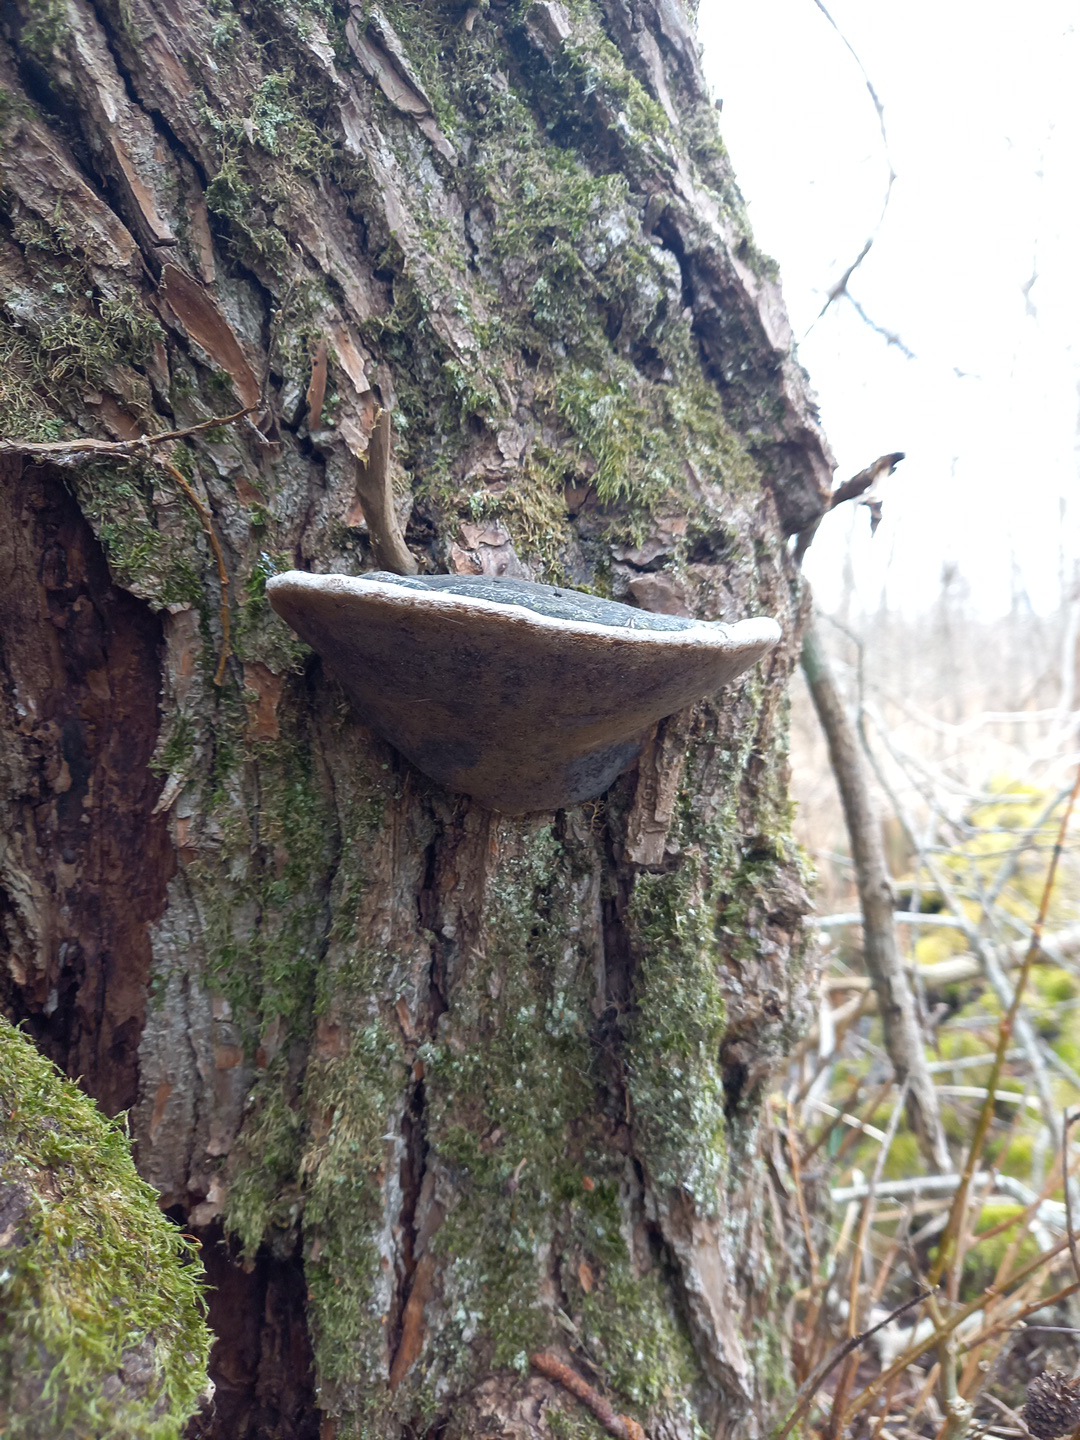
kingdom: Fungi
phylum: Basidiomycota
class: Agaricomycetes
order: Hymenochaetales
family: Hymenochaetaceae
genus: Phellinus
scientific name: Phellinus igniarius
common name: almindelig ildporesvamp
